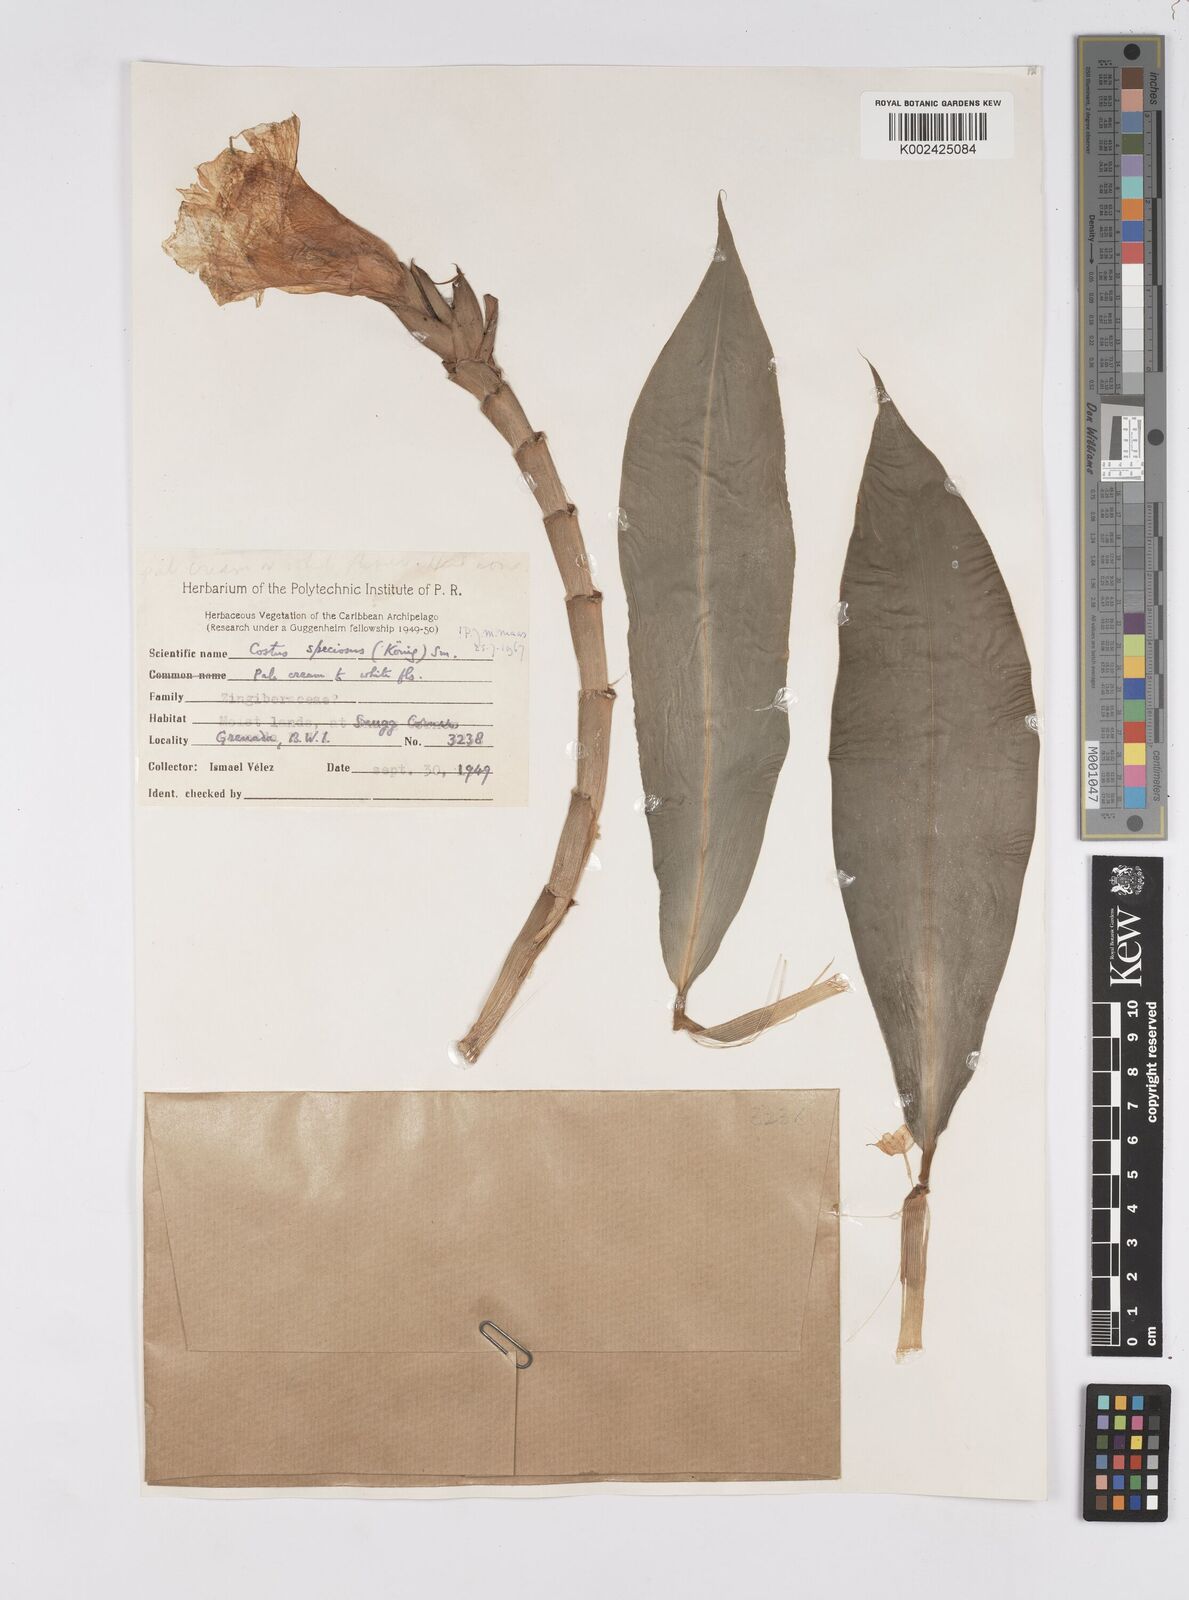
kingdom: Plantae
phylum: Tracheophyta
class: Liliopsida
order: Zingiberales
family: Costaceae
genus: Hellenia
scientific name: Hellenia speciosa
